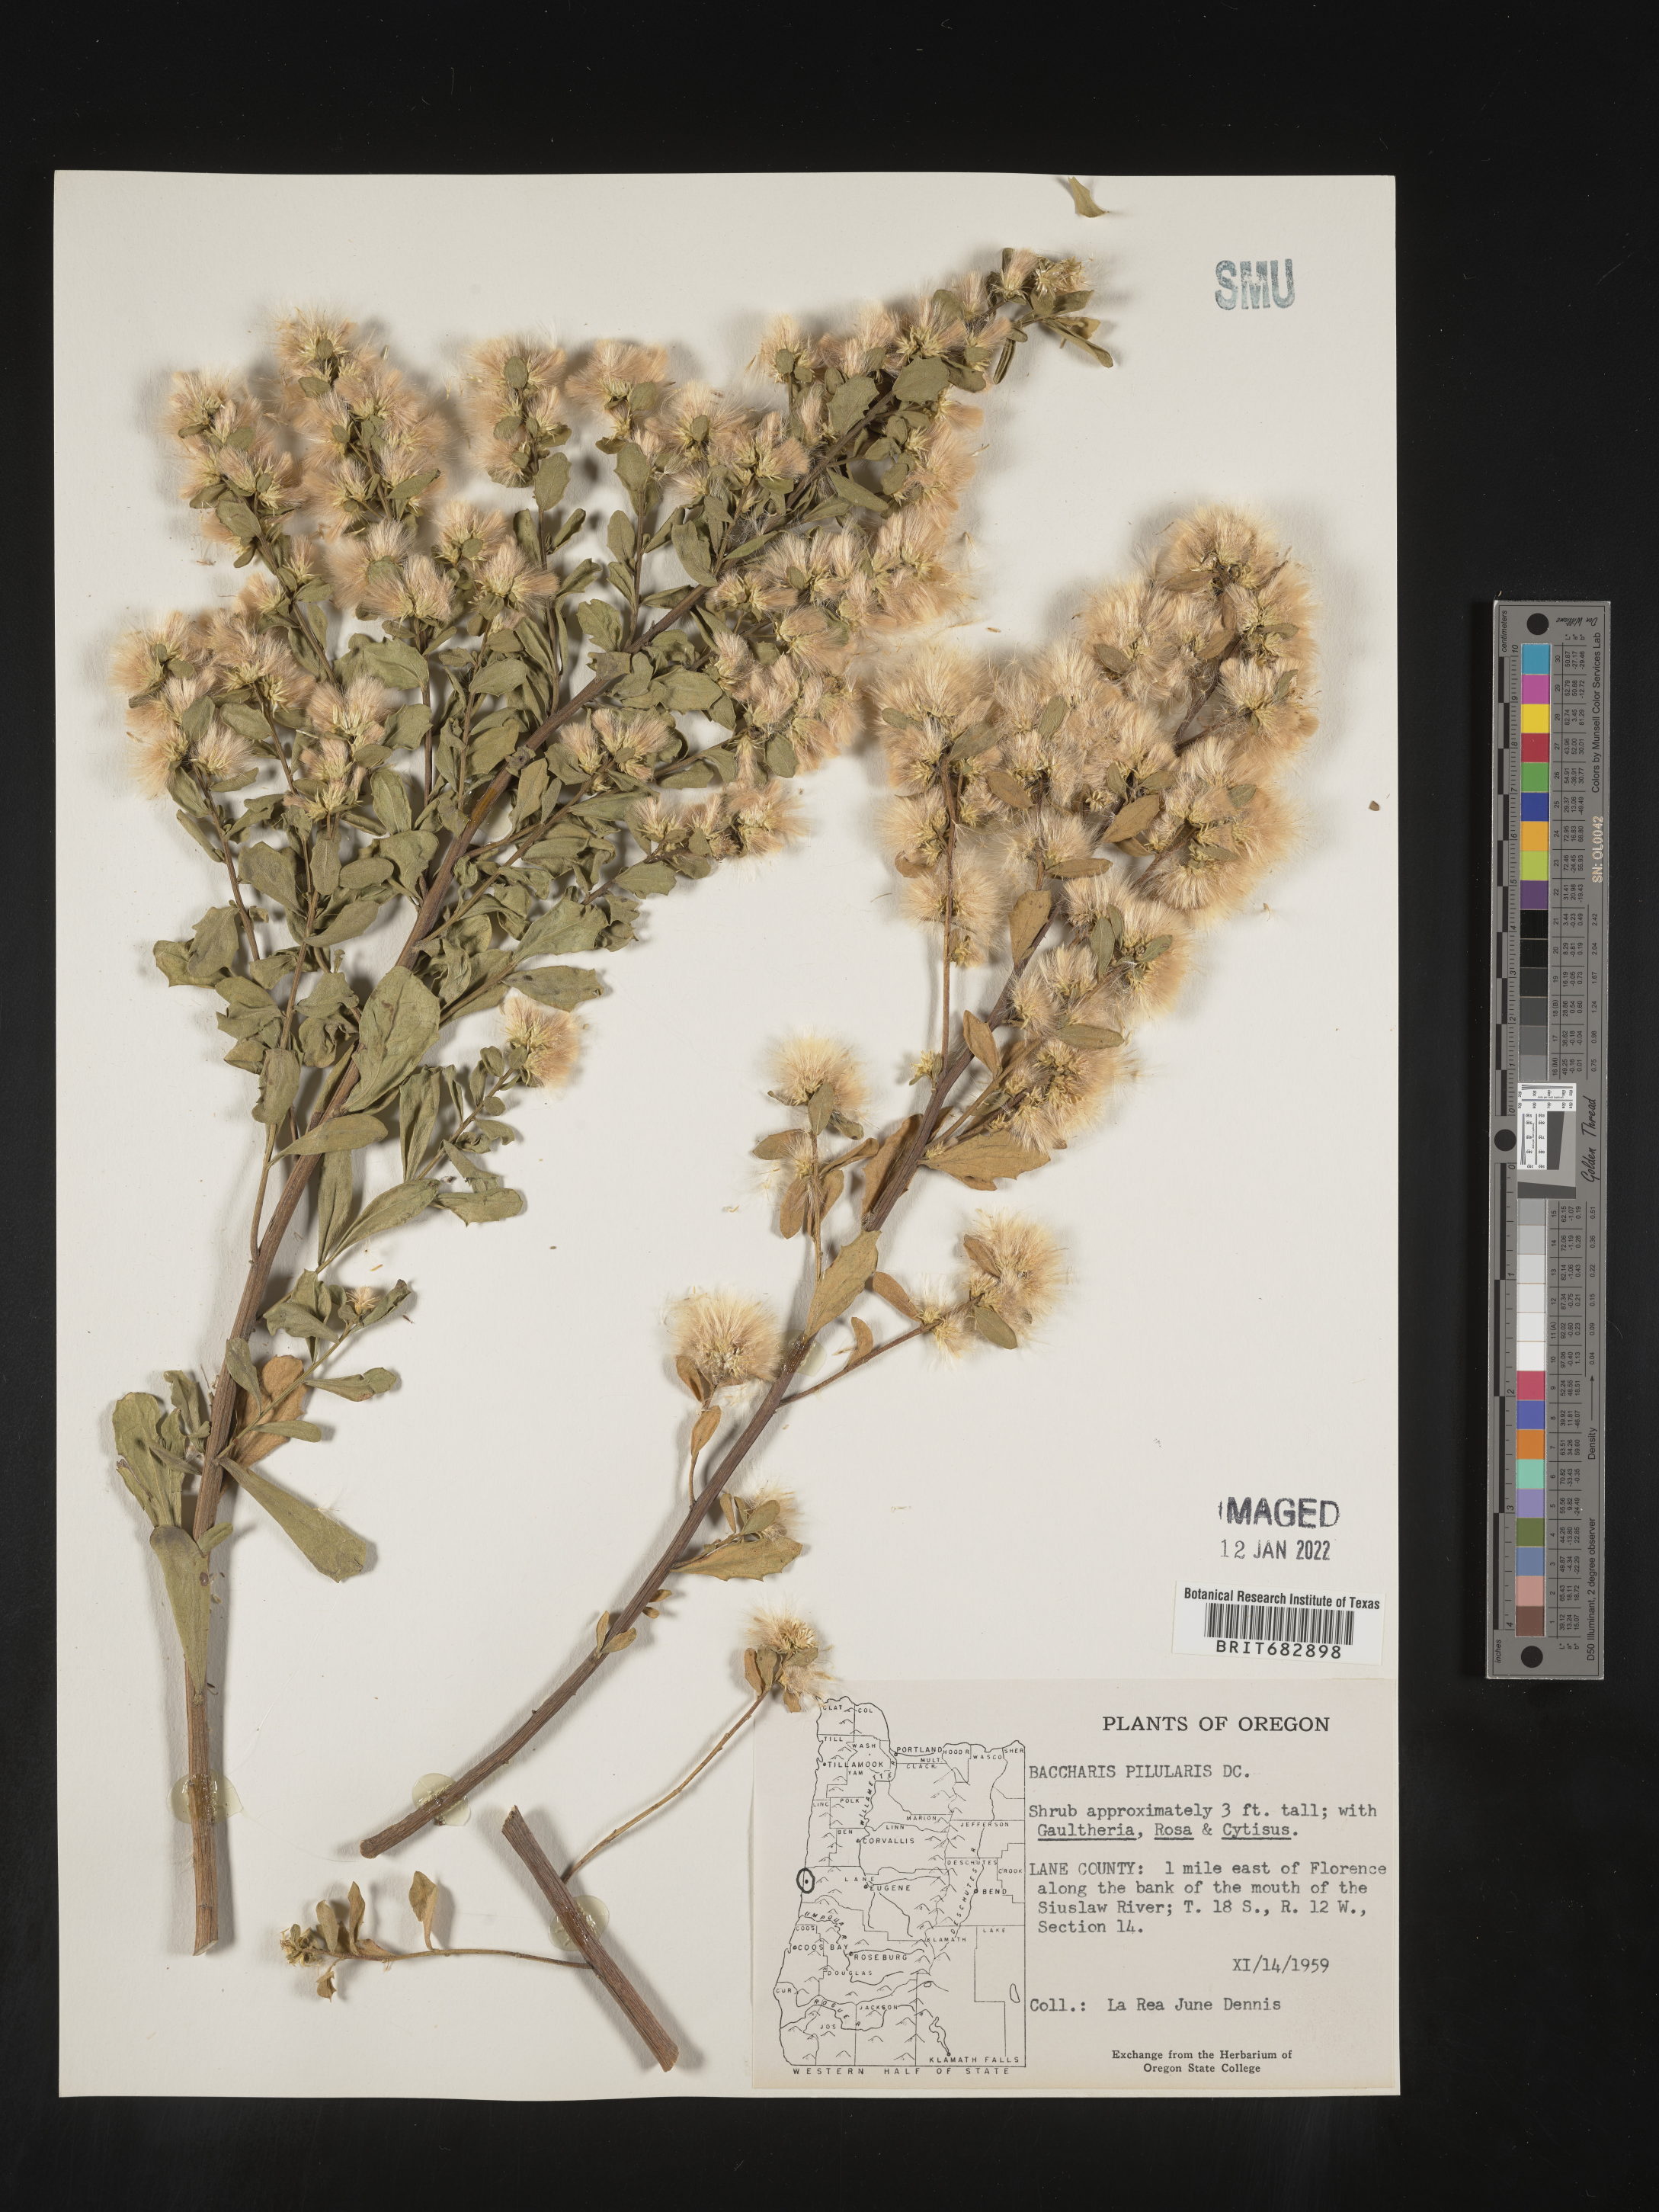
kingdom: Plantae
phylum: Tracheophyta
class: Magnoliopsida
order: Asterales
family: Asteraceae
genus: Baccharis
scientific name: Baccharis pilularis
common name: Coyotebrush
